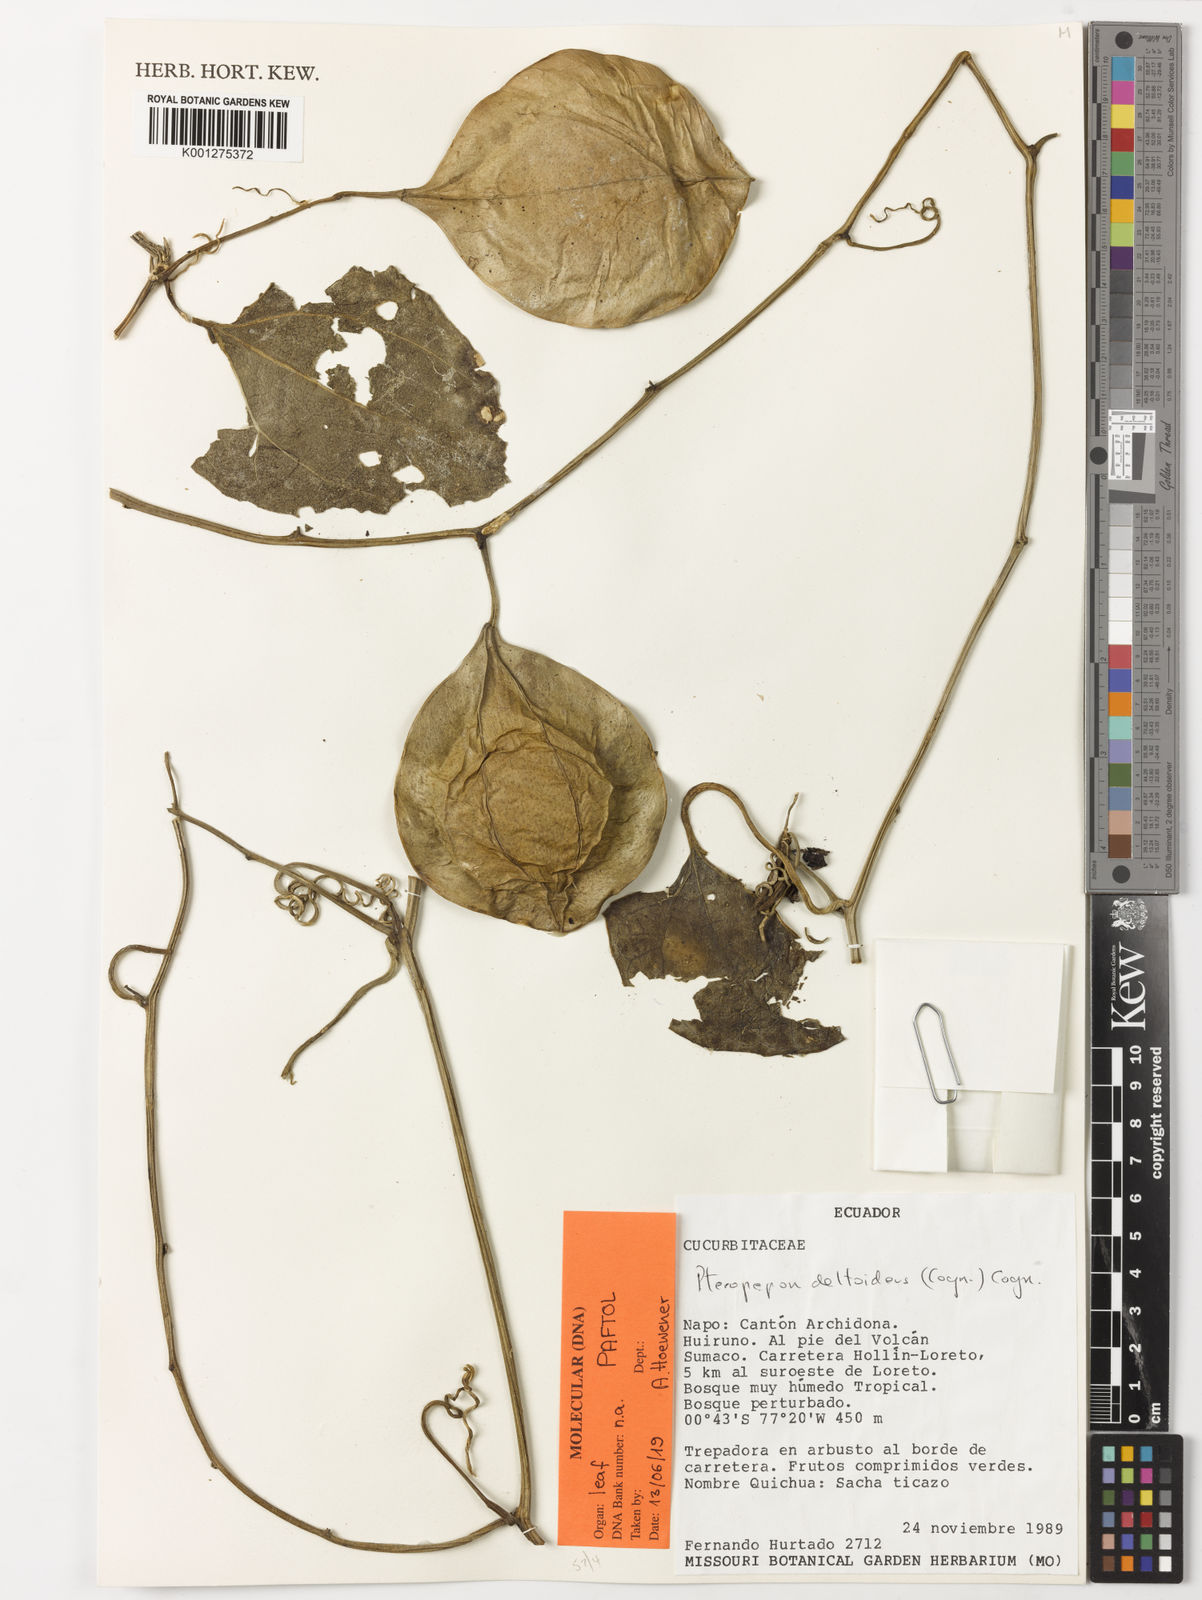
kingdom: Plantae
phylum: Tracheophyta
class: Magnoliopsida
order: Cucurbitales
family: Cucurbitaceae
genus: Pteropepon
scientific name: Pteropepon deltoideus
